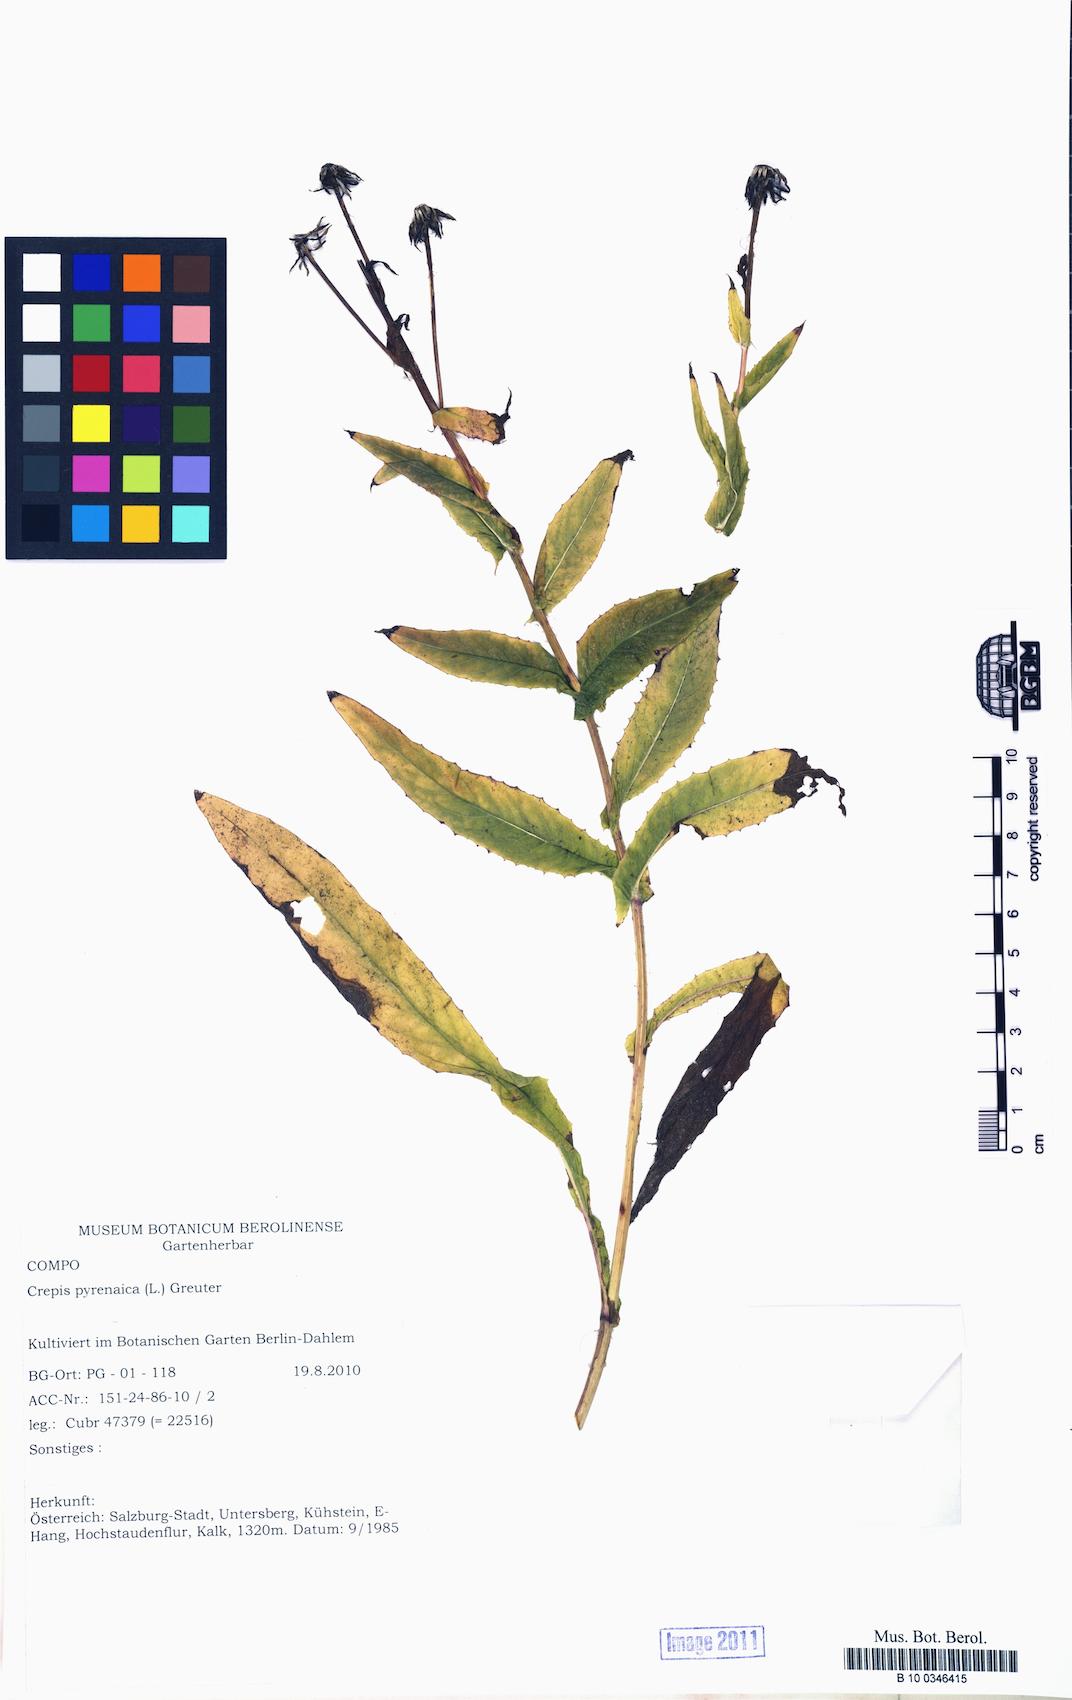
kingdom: Plantae
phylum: Tracheophyta
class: Magnoliopsida
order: Asterales
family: Asteraceae
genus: Crepis
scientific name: Crepis pyrenaica
